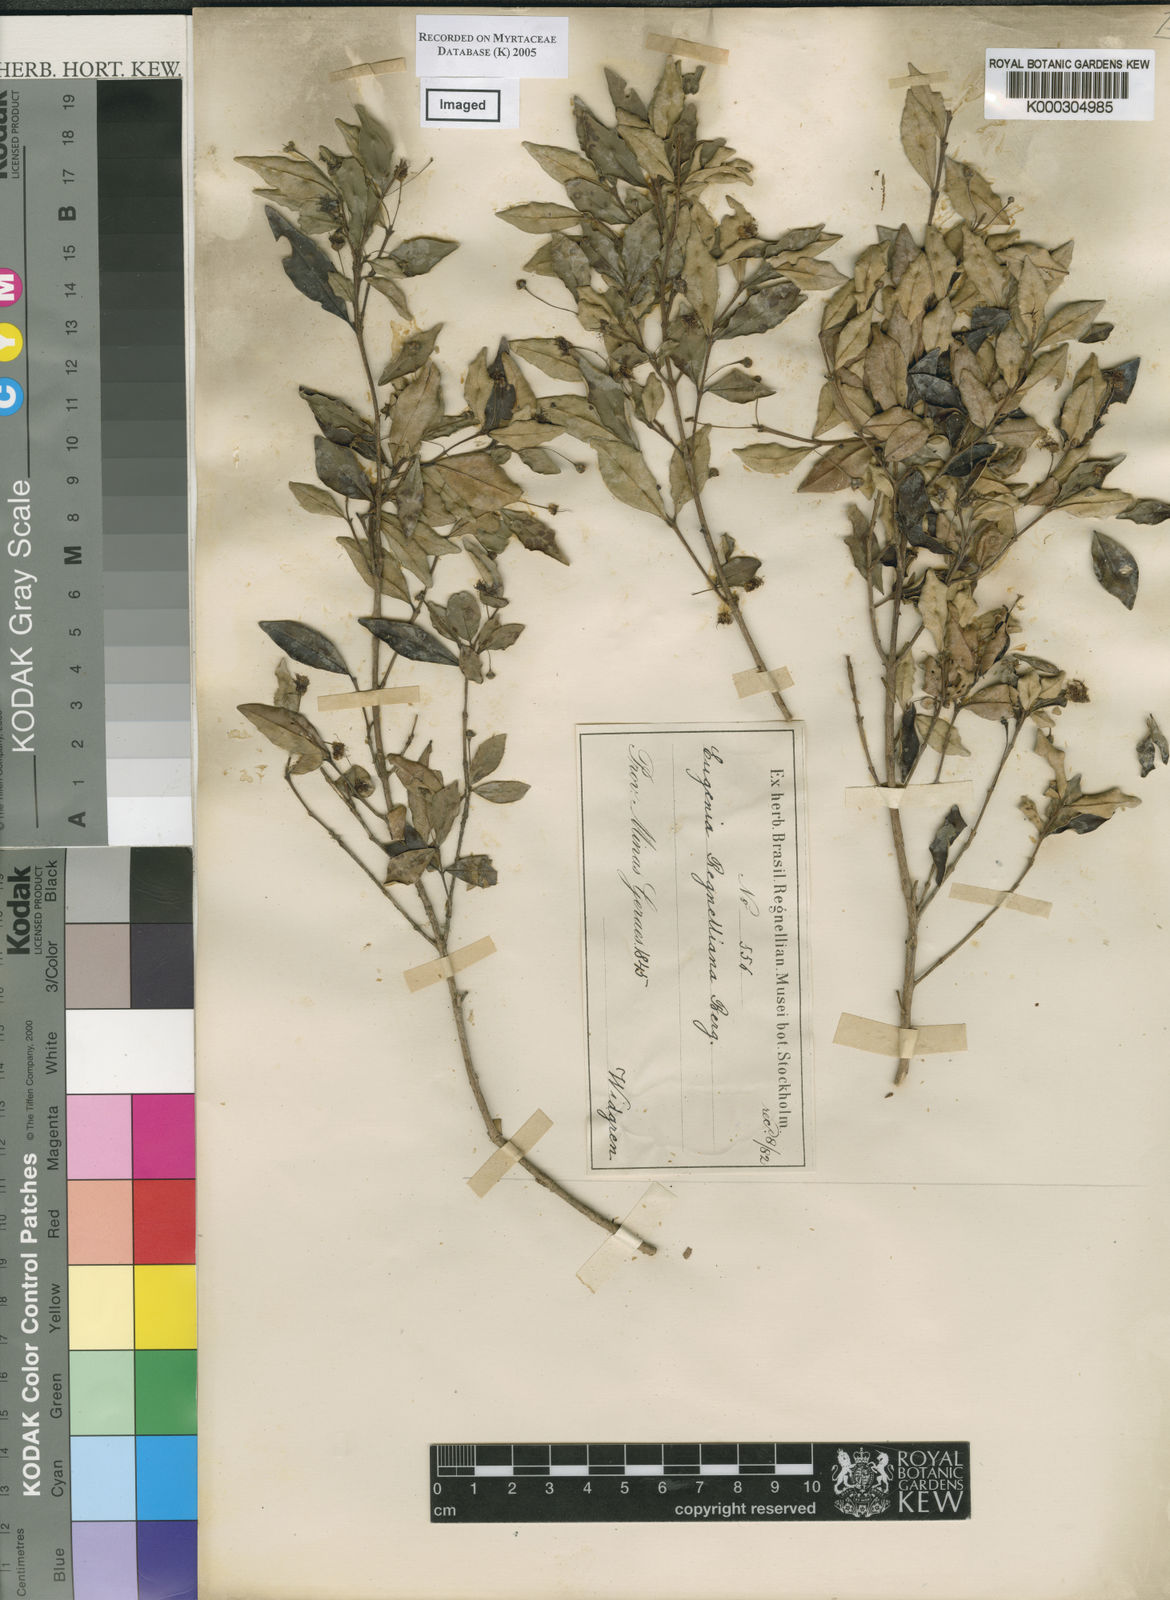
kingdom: Plantae
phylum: Tracheophyta
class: Magnoliopsida
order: Myrtales
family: Myrtaceae
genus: Myrceugenia
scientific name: Myrceugenia ovata
